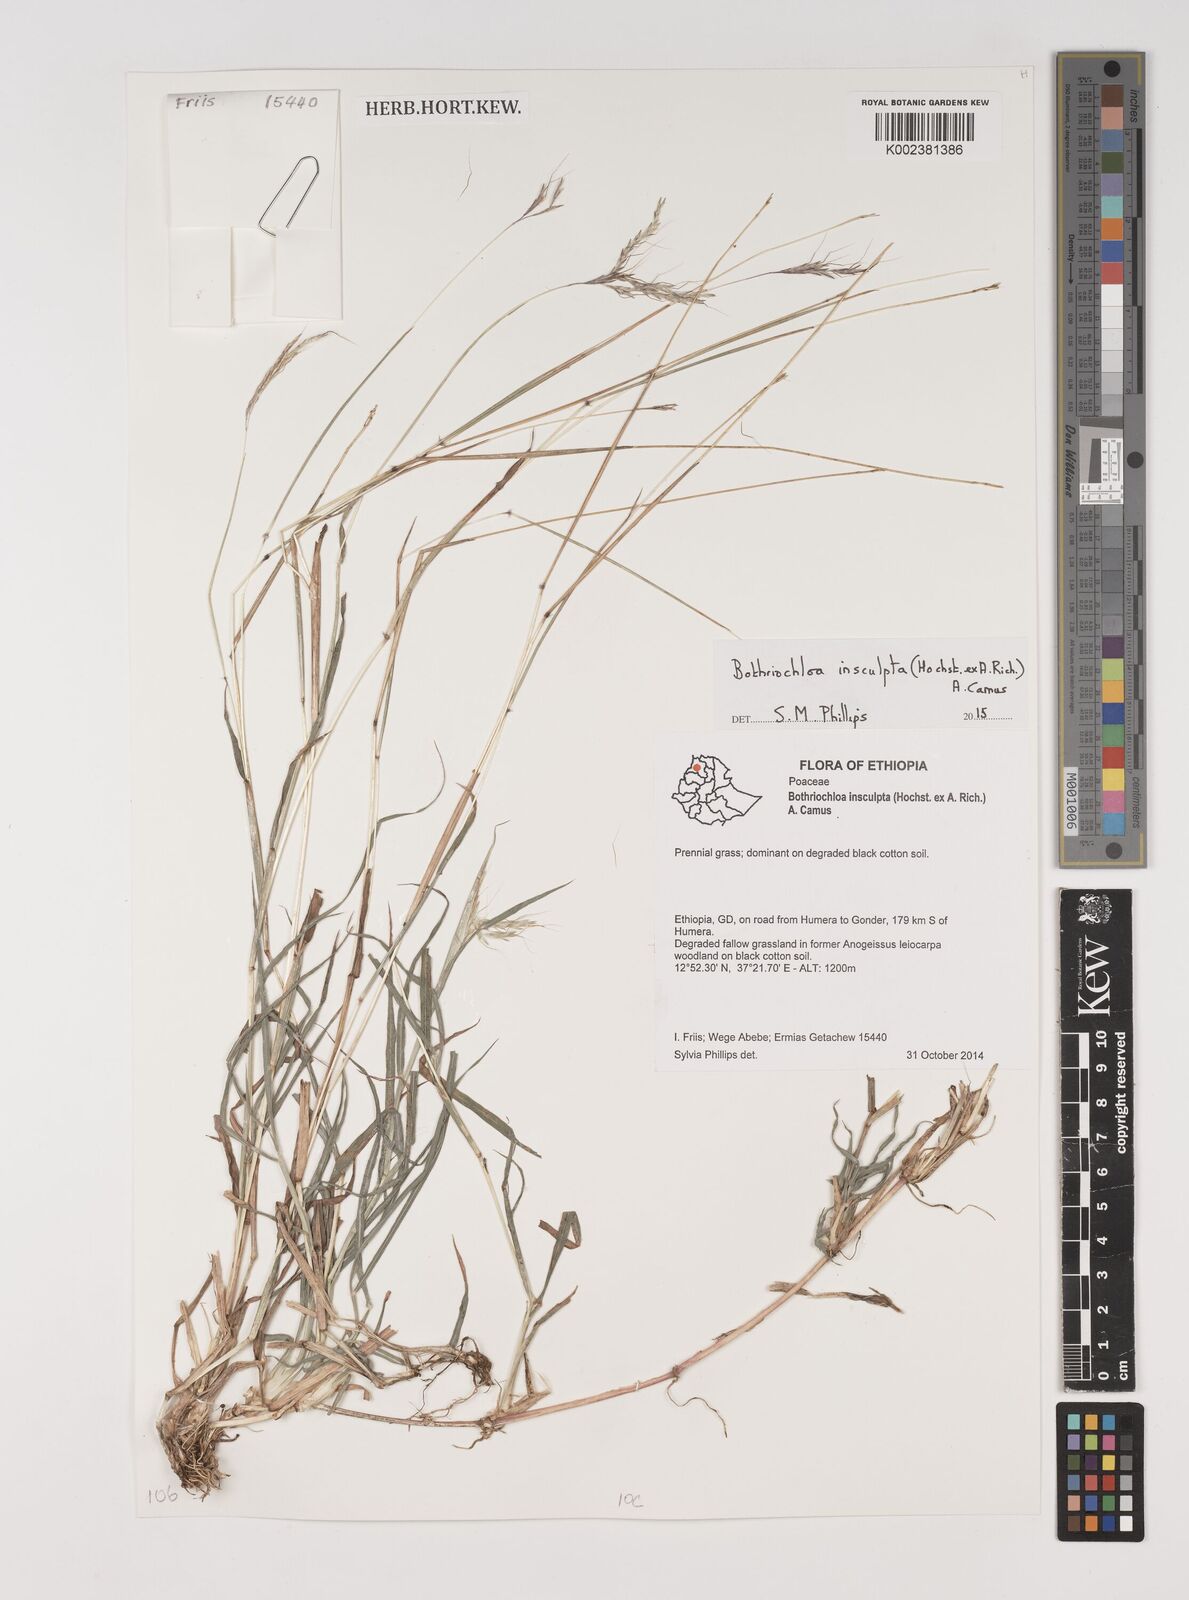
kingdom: Plantae
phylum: Tracheophyta
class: Liliopsida
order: Poales
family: Poaceae
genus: Bothriochloa
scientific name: Bothriochloa insculpta
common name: Creeping-bluegrass
